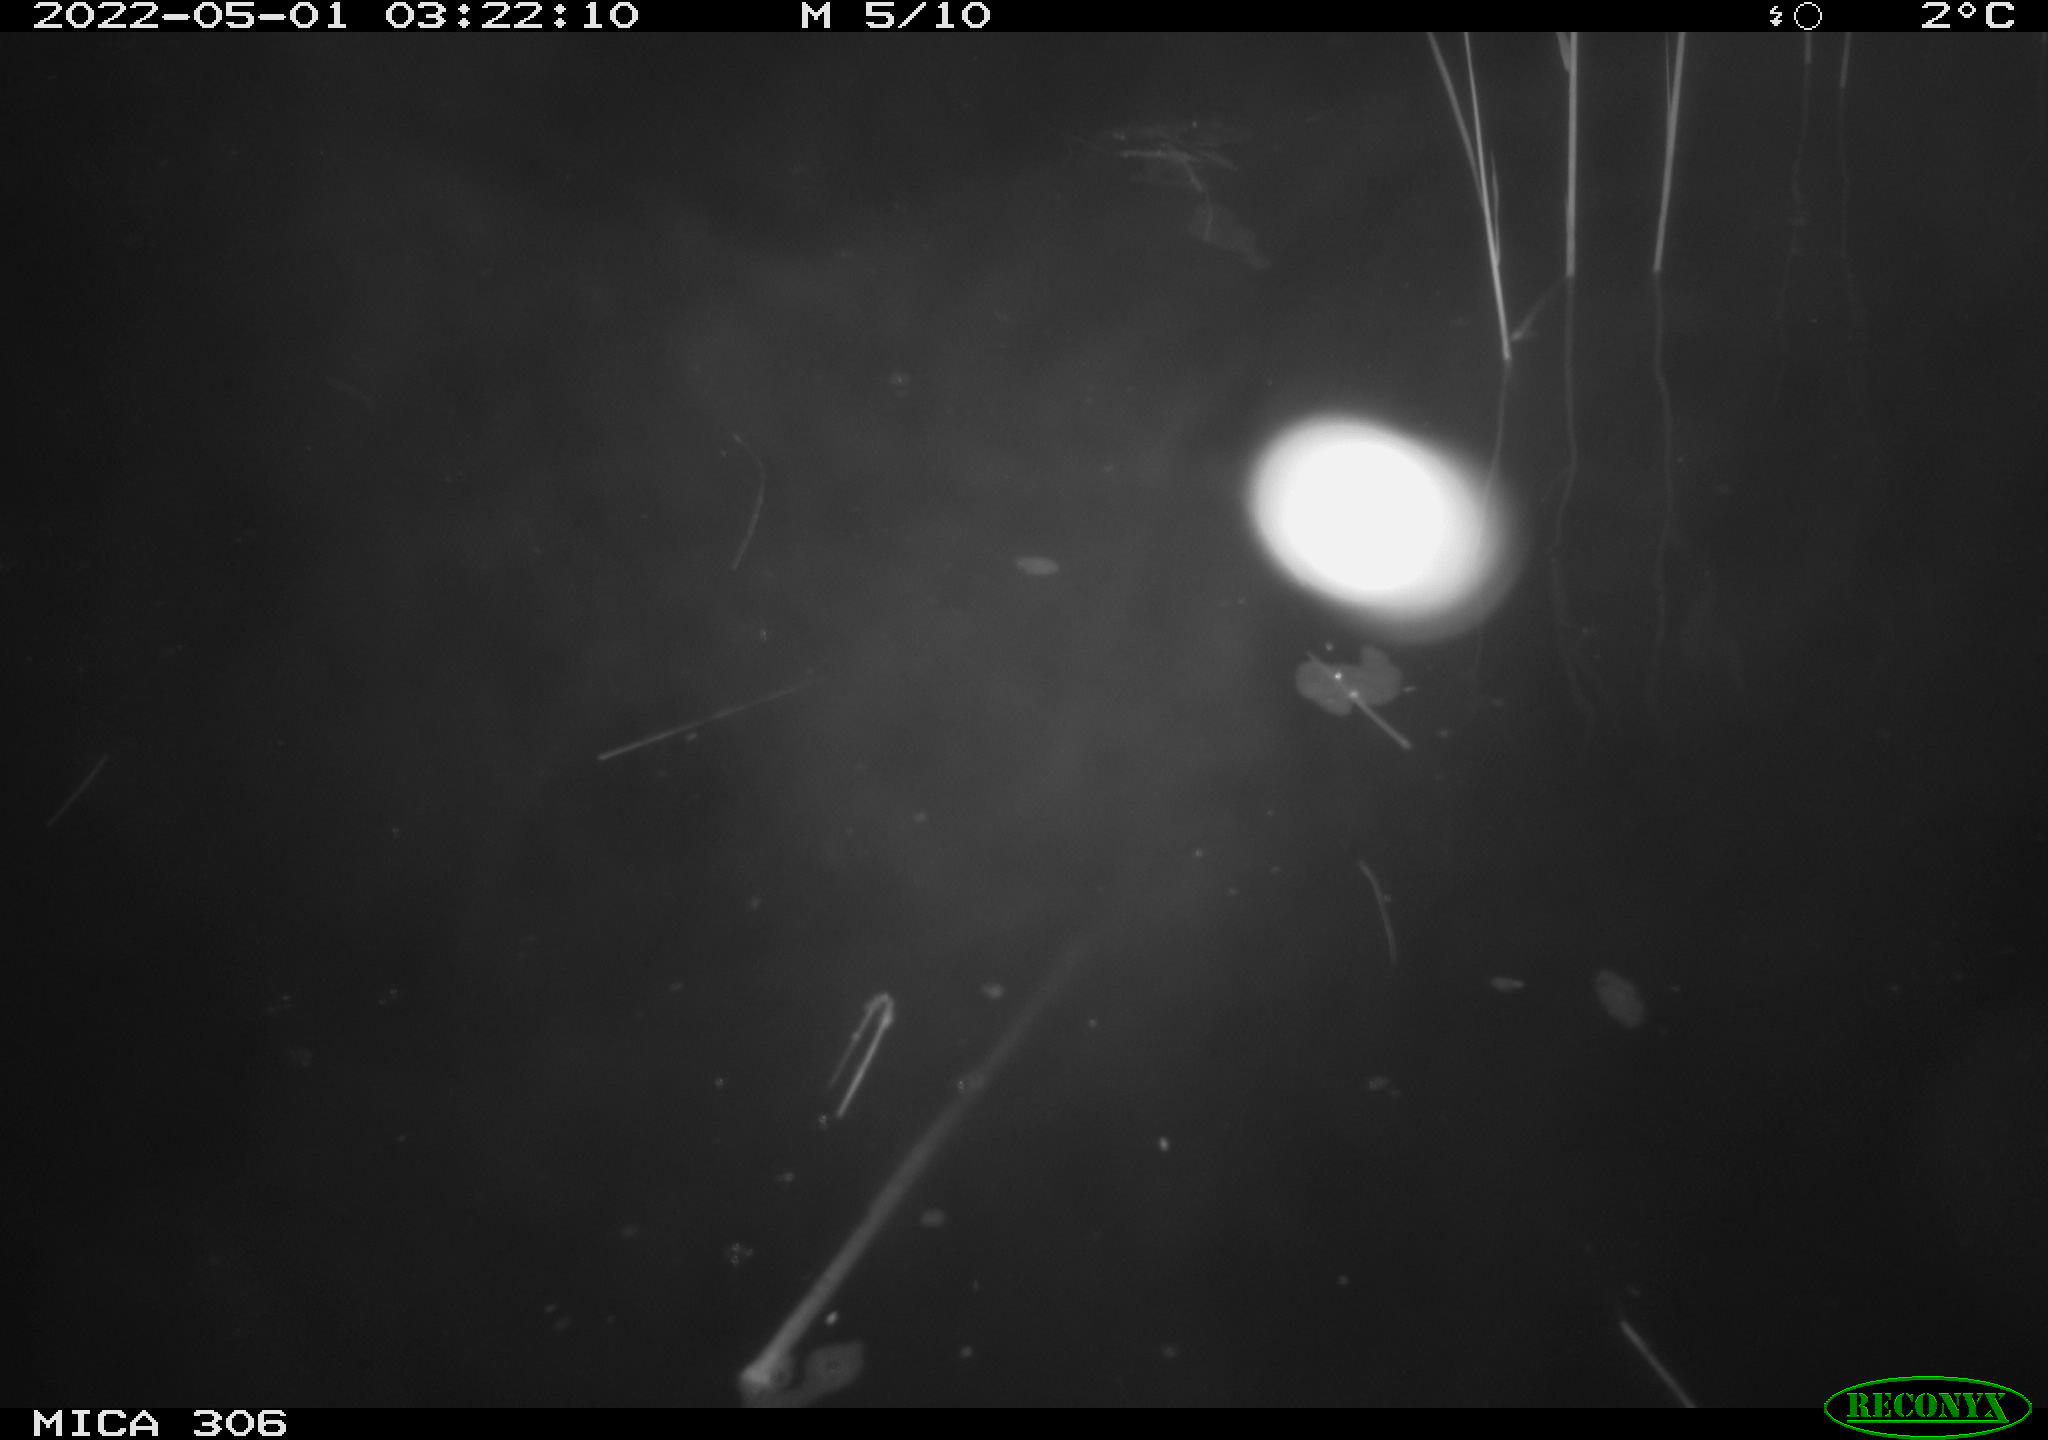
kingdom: Animalia
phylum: Chordata
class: Mammalia
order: Rodentia
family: Cricetidae
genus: Ondatra
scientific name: Ondatra zibethicus
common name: Muskrat
